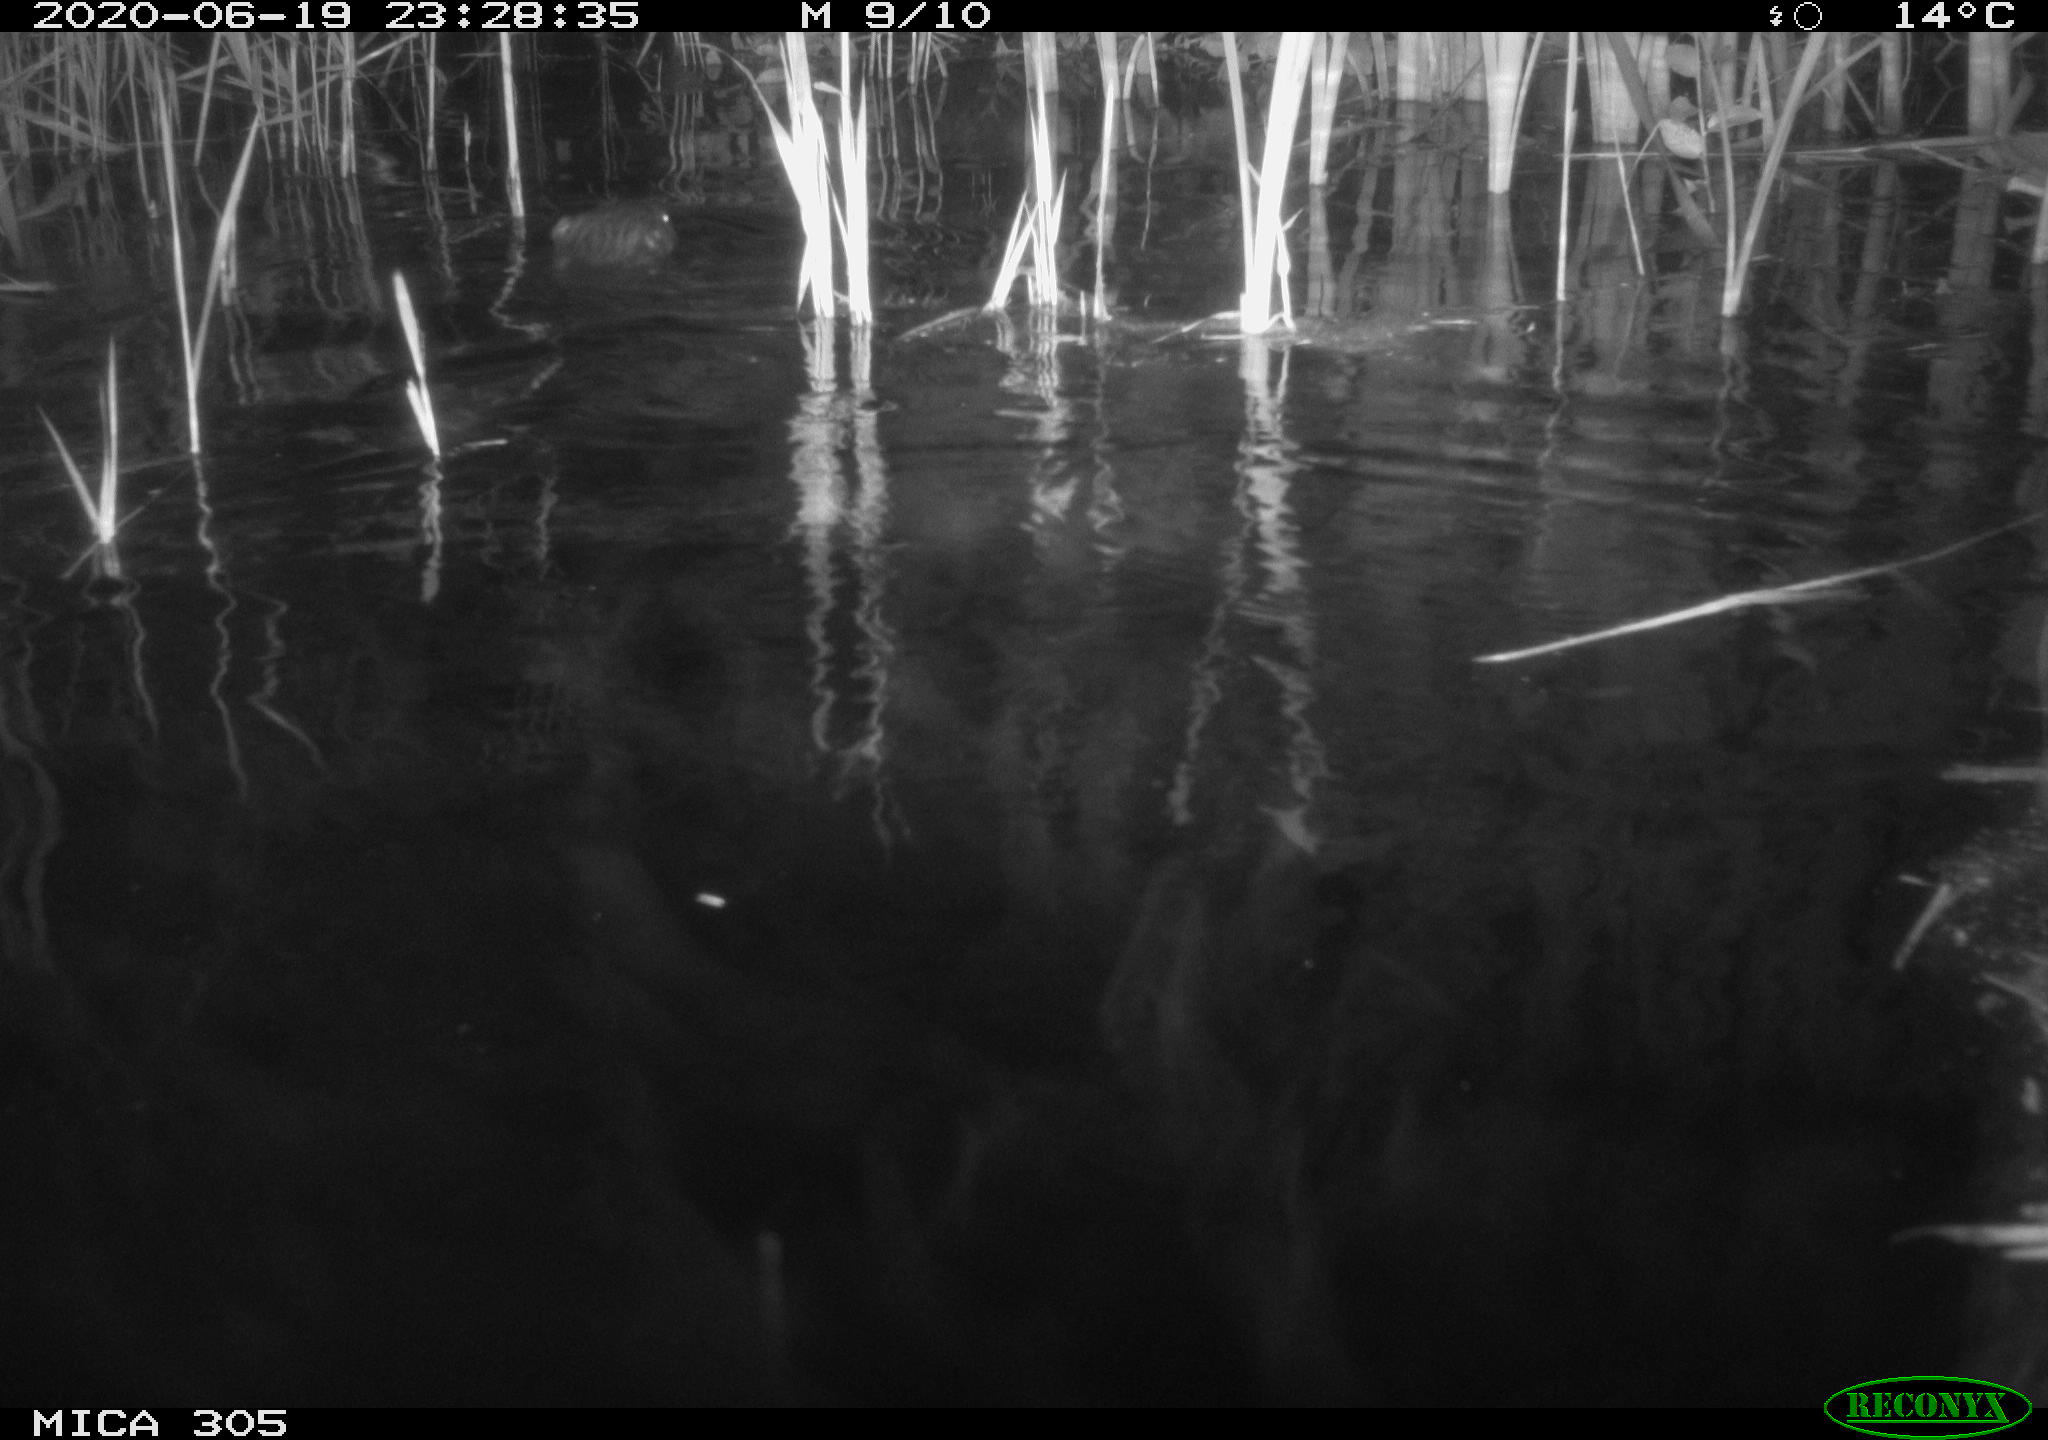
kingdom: Animalia
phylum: Chordata
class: Mammalia
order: Rodentia
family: Castoridae
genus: Castor
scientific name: Castor fiber
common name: Eurasian beaver
